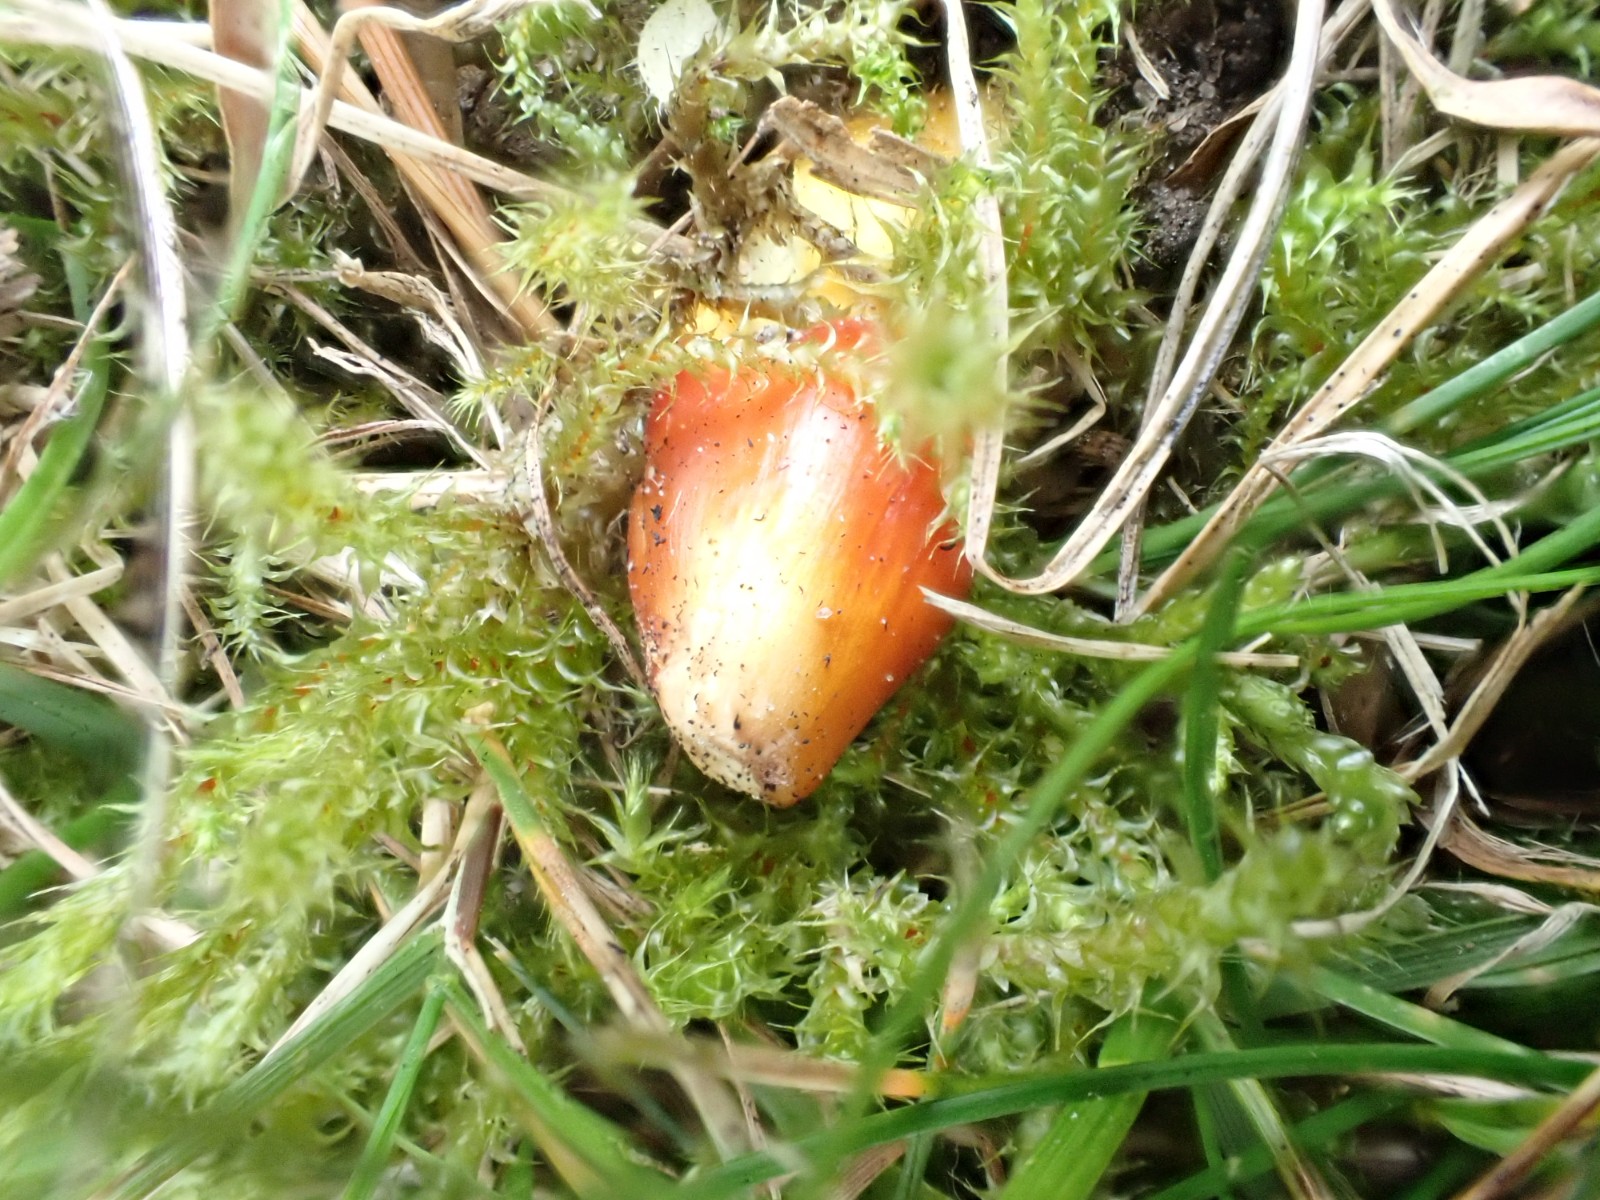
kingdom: Fungi
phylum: Basidiomycota
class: Agaricomycetes
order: Agaricales
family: Hygrophoraceae
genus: Hygrocybe
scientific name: Hygrocybe
